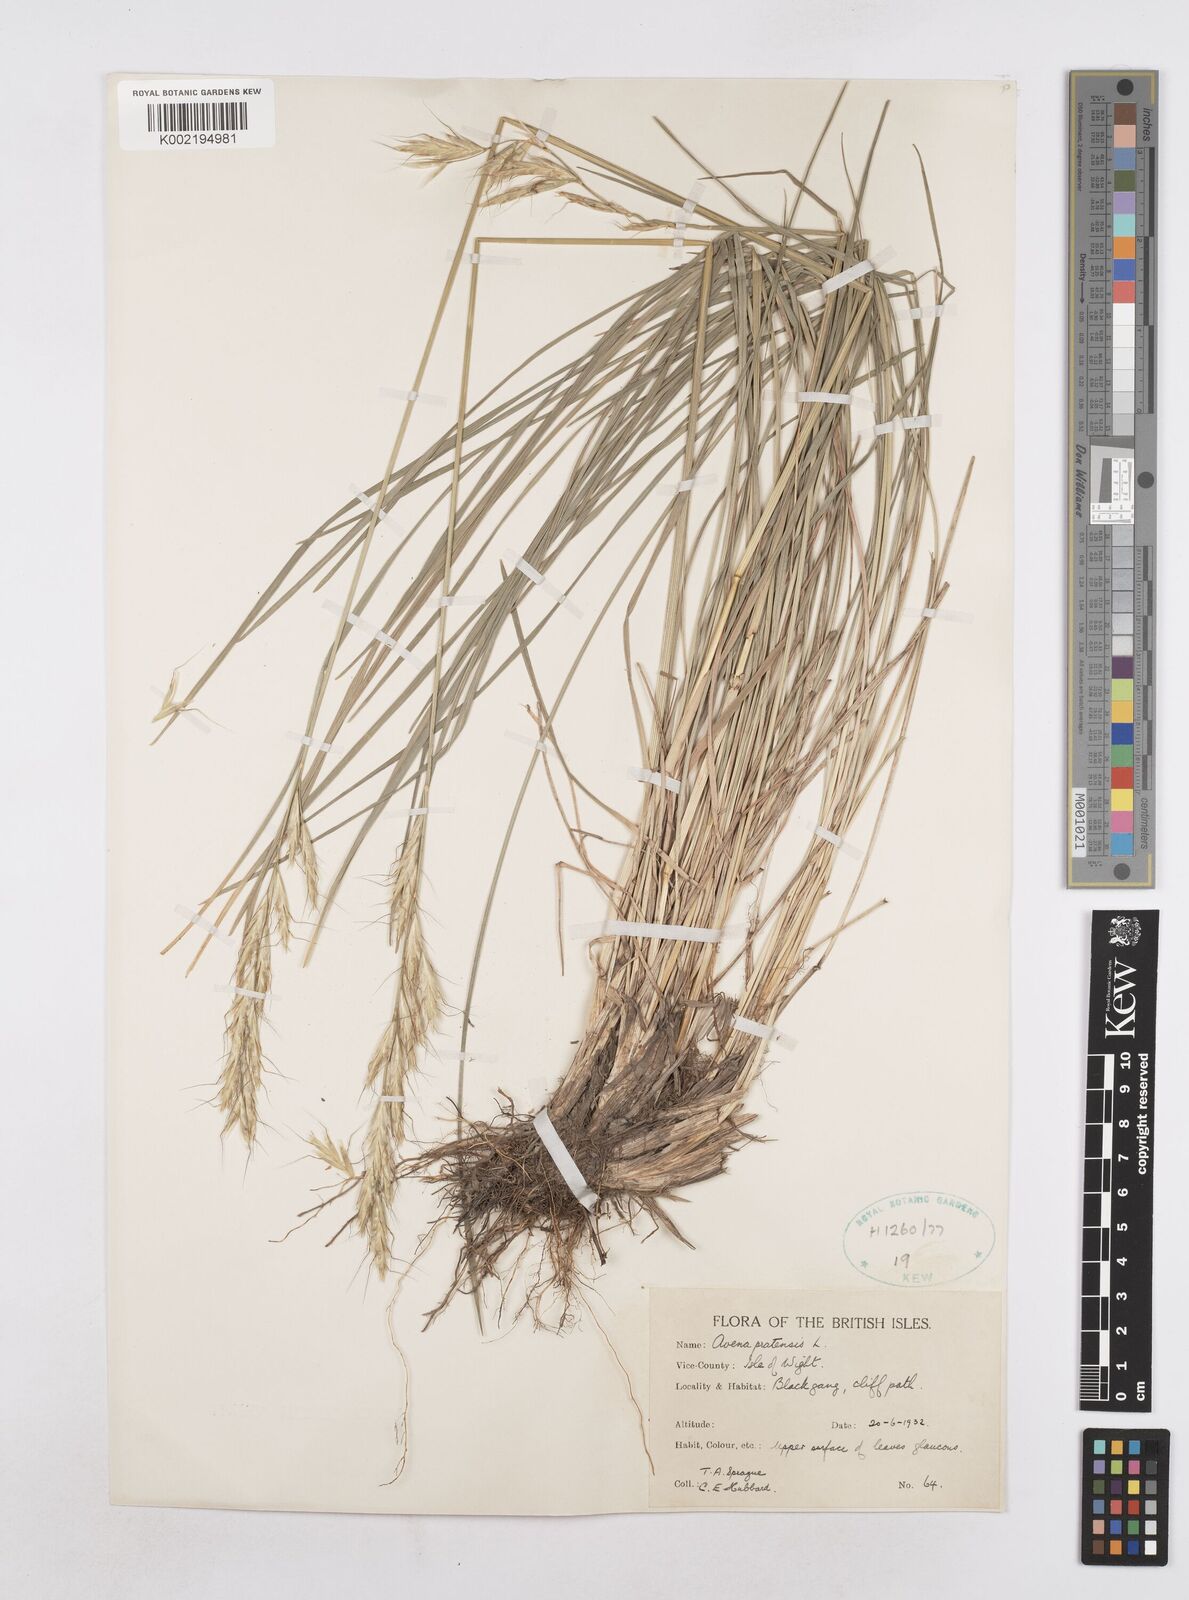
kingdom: Plantae
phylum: Tracheophyta
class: Liliopsida
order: Poales
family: Poaceae
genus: Helictochloa
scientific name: Helictochloa pratensis
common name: Meadow oat grass
